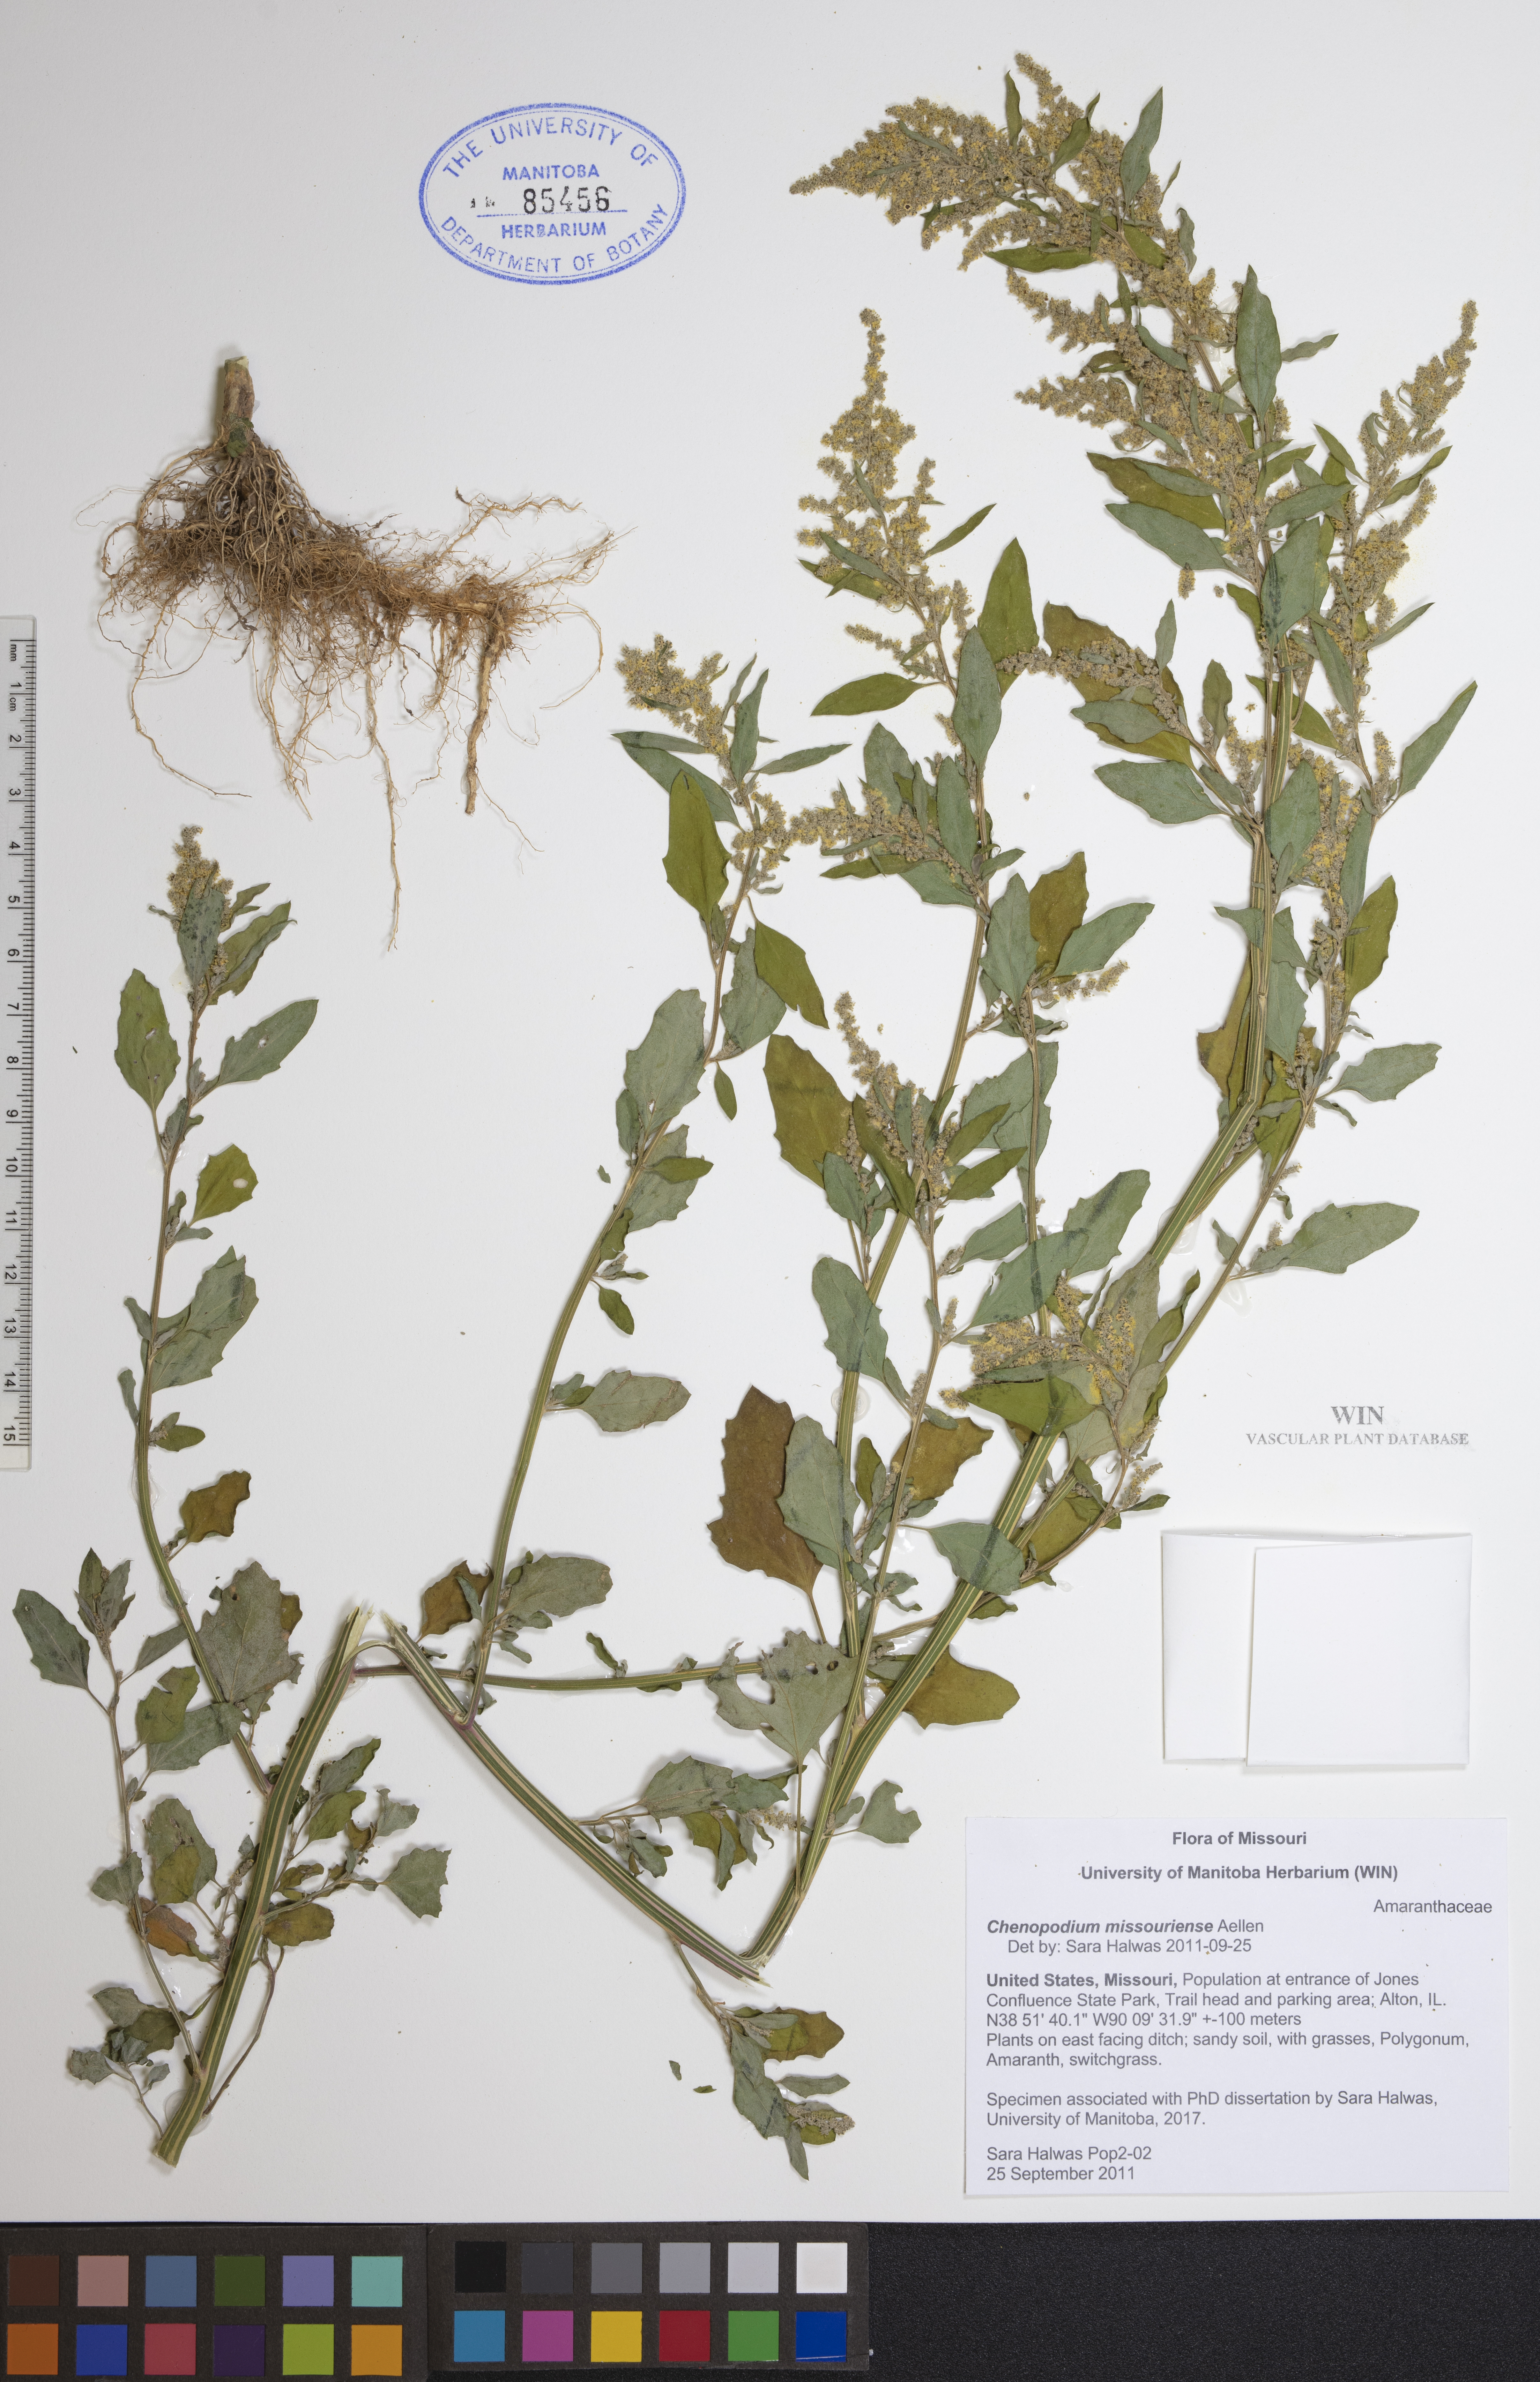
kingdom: Plantae
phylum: Tracheophyta
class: Magnoliopsida
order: Caryophyllales
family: Amaranthaceae
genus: Chenopodium
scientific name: Chenopodium album
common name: Fat-hen
